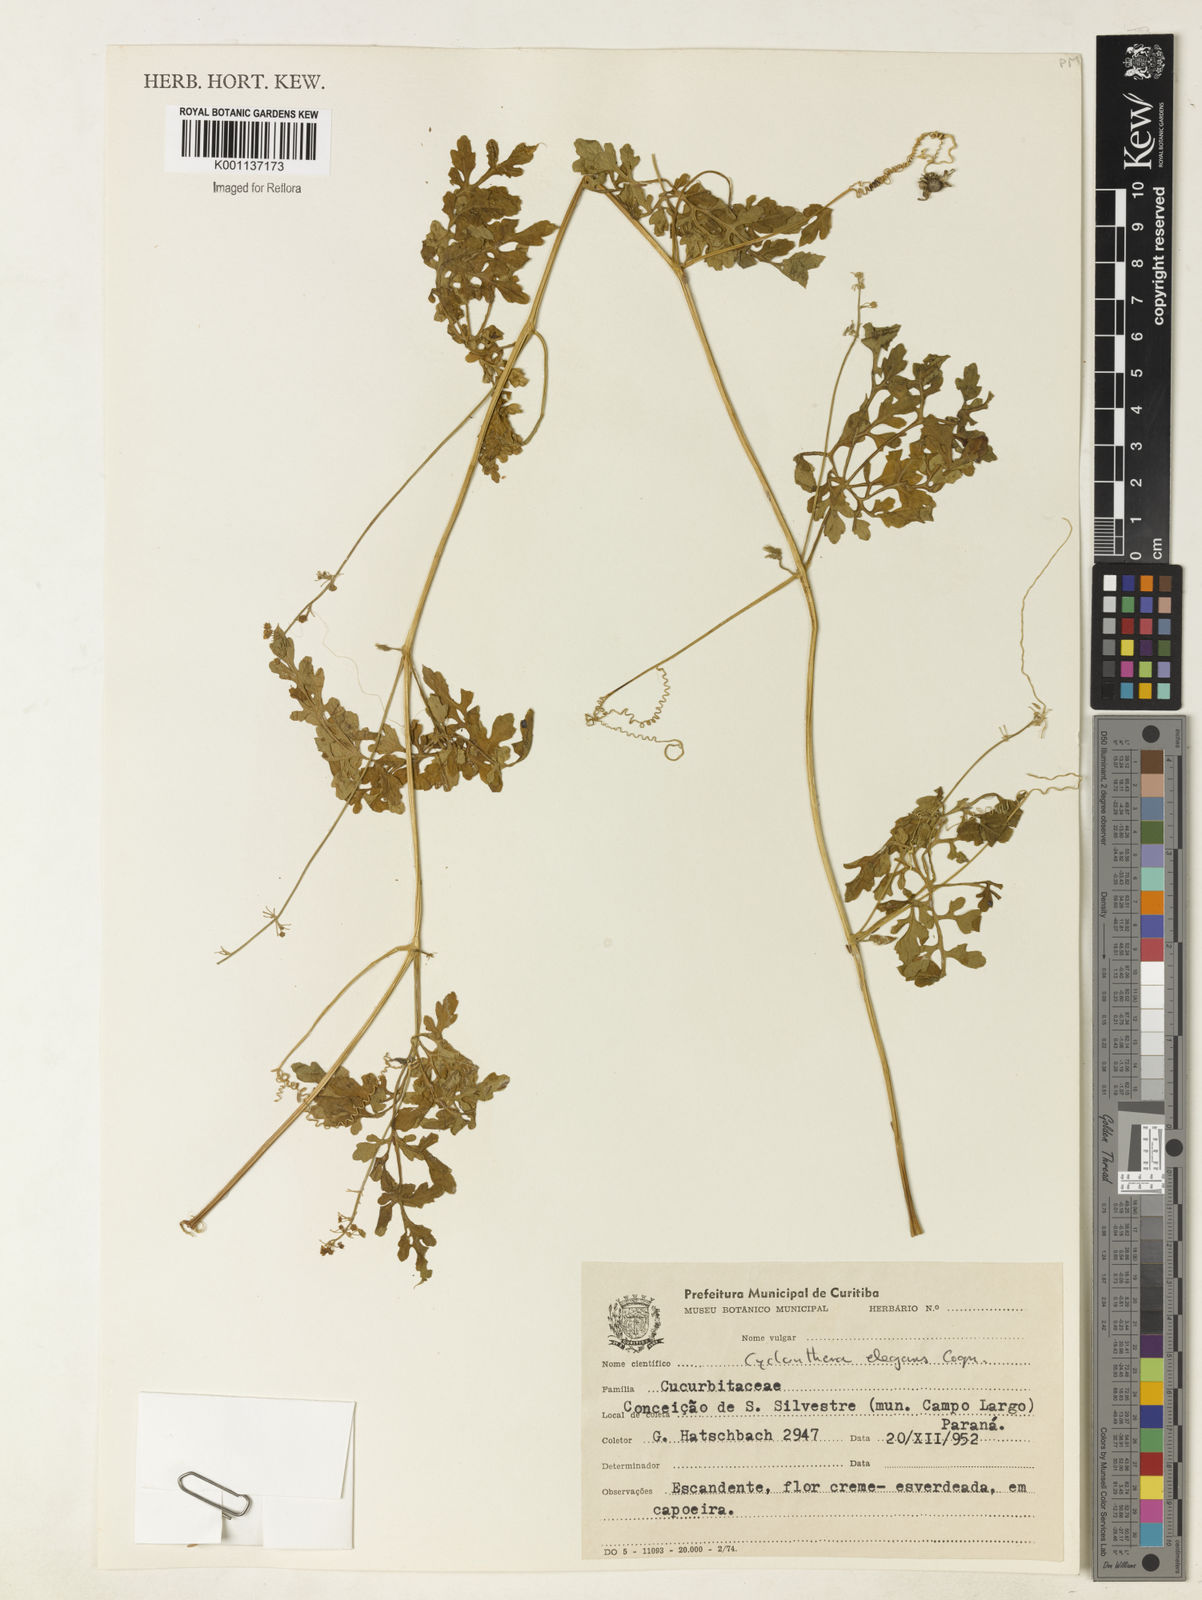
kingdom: Plantae
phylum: Tracheophyta
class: Magnoliopsida
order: Cucurbitales
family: Cucurbitaceae
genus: Cyclanthera
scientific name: Cyclanthera tenuisepala
